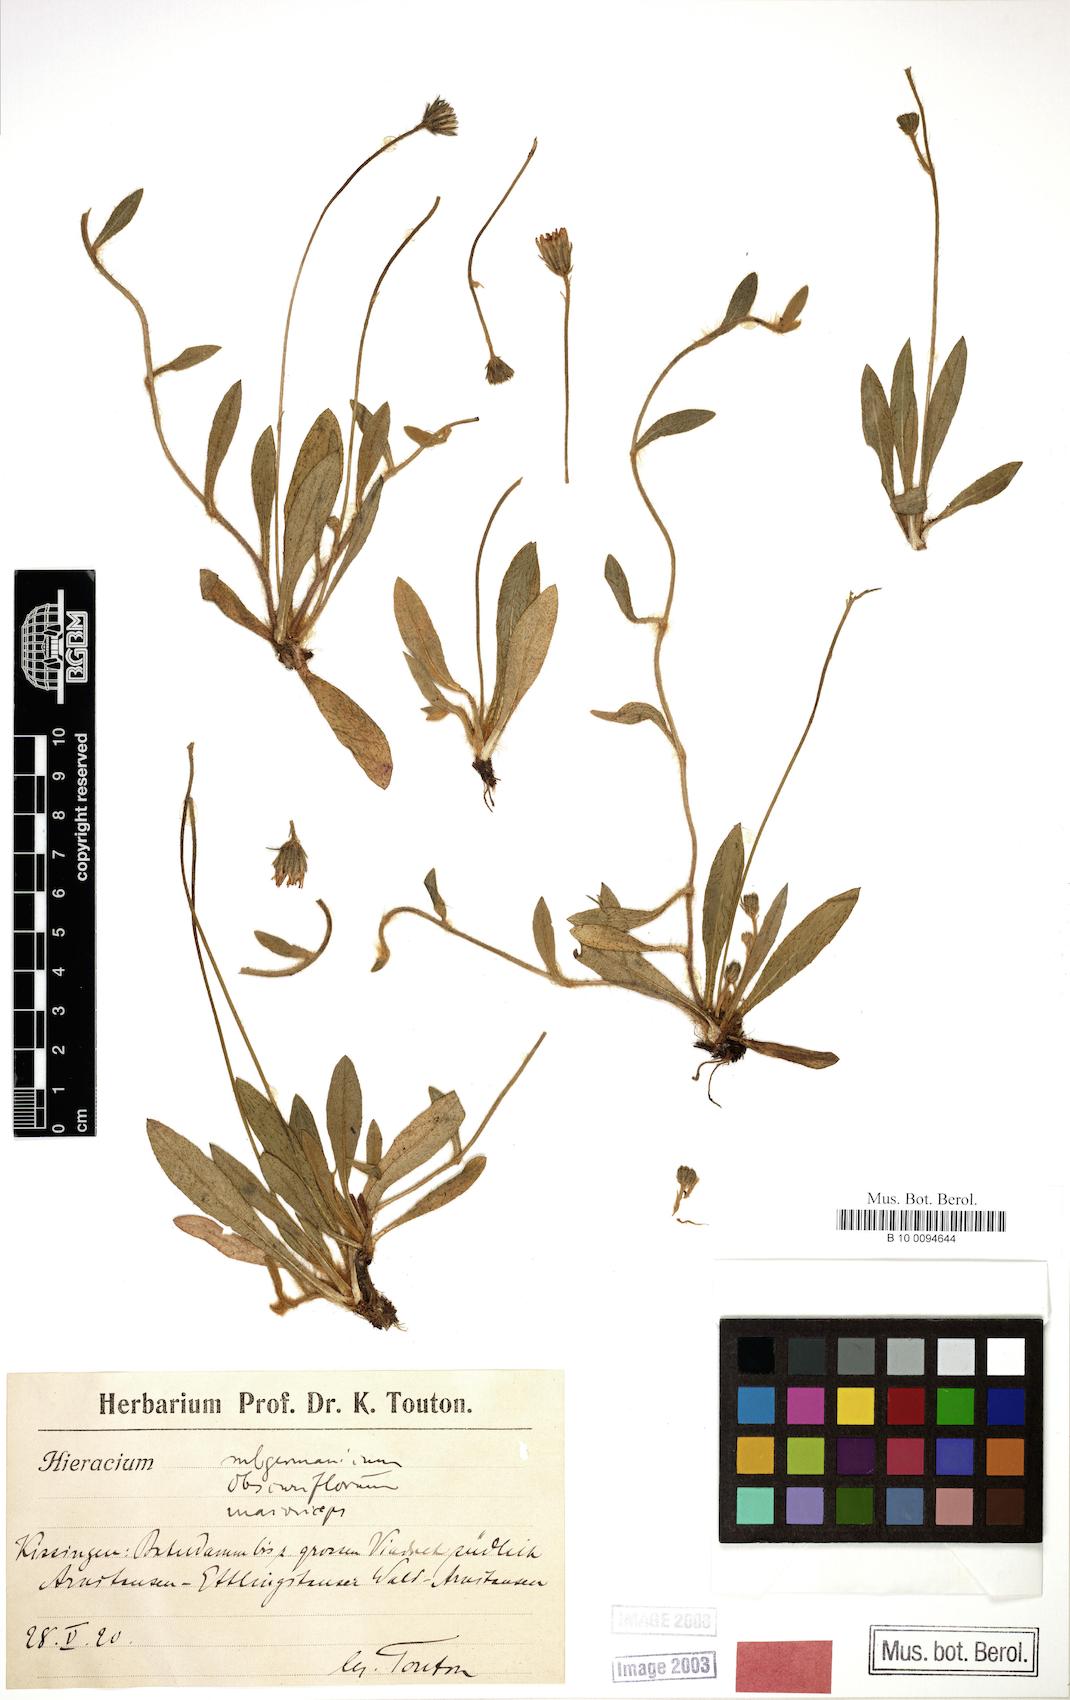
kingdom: Plantae
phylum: Tracheophyta
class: Magnoliopsida
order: Asterales
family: Asteraceae
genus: Hieracium
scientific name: Hieracium subgermanicum
